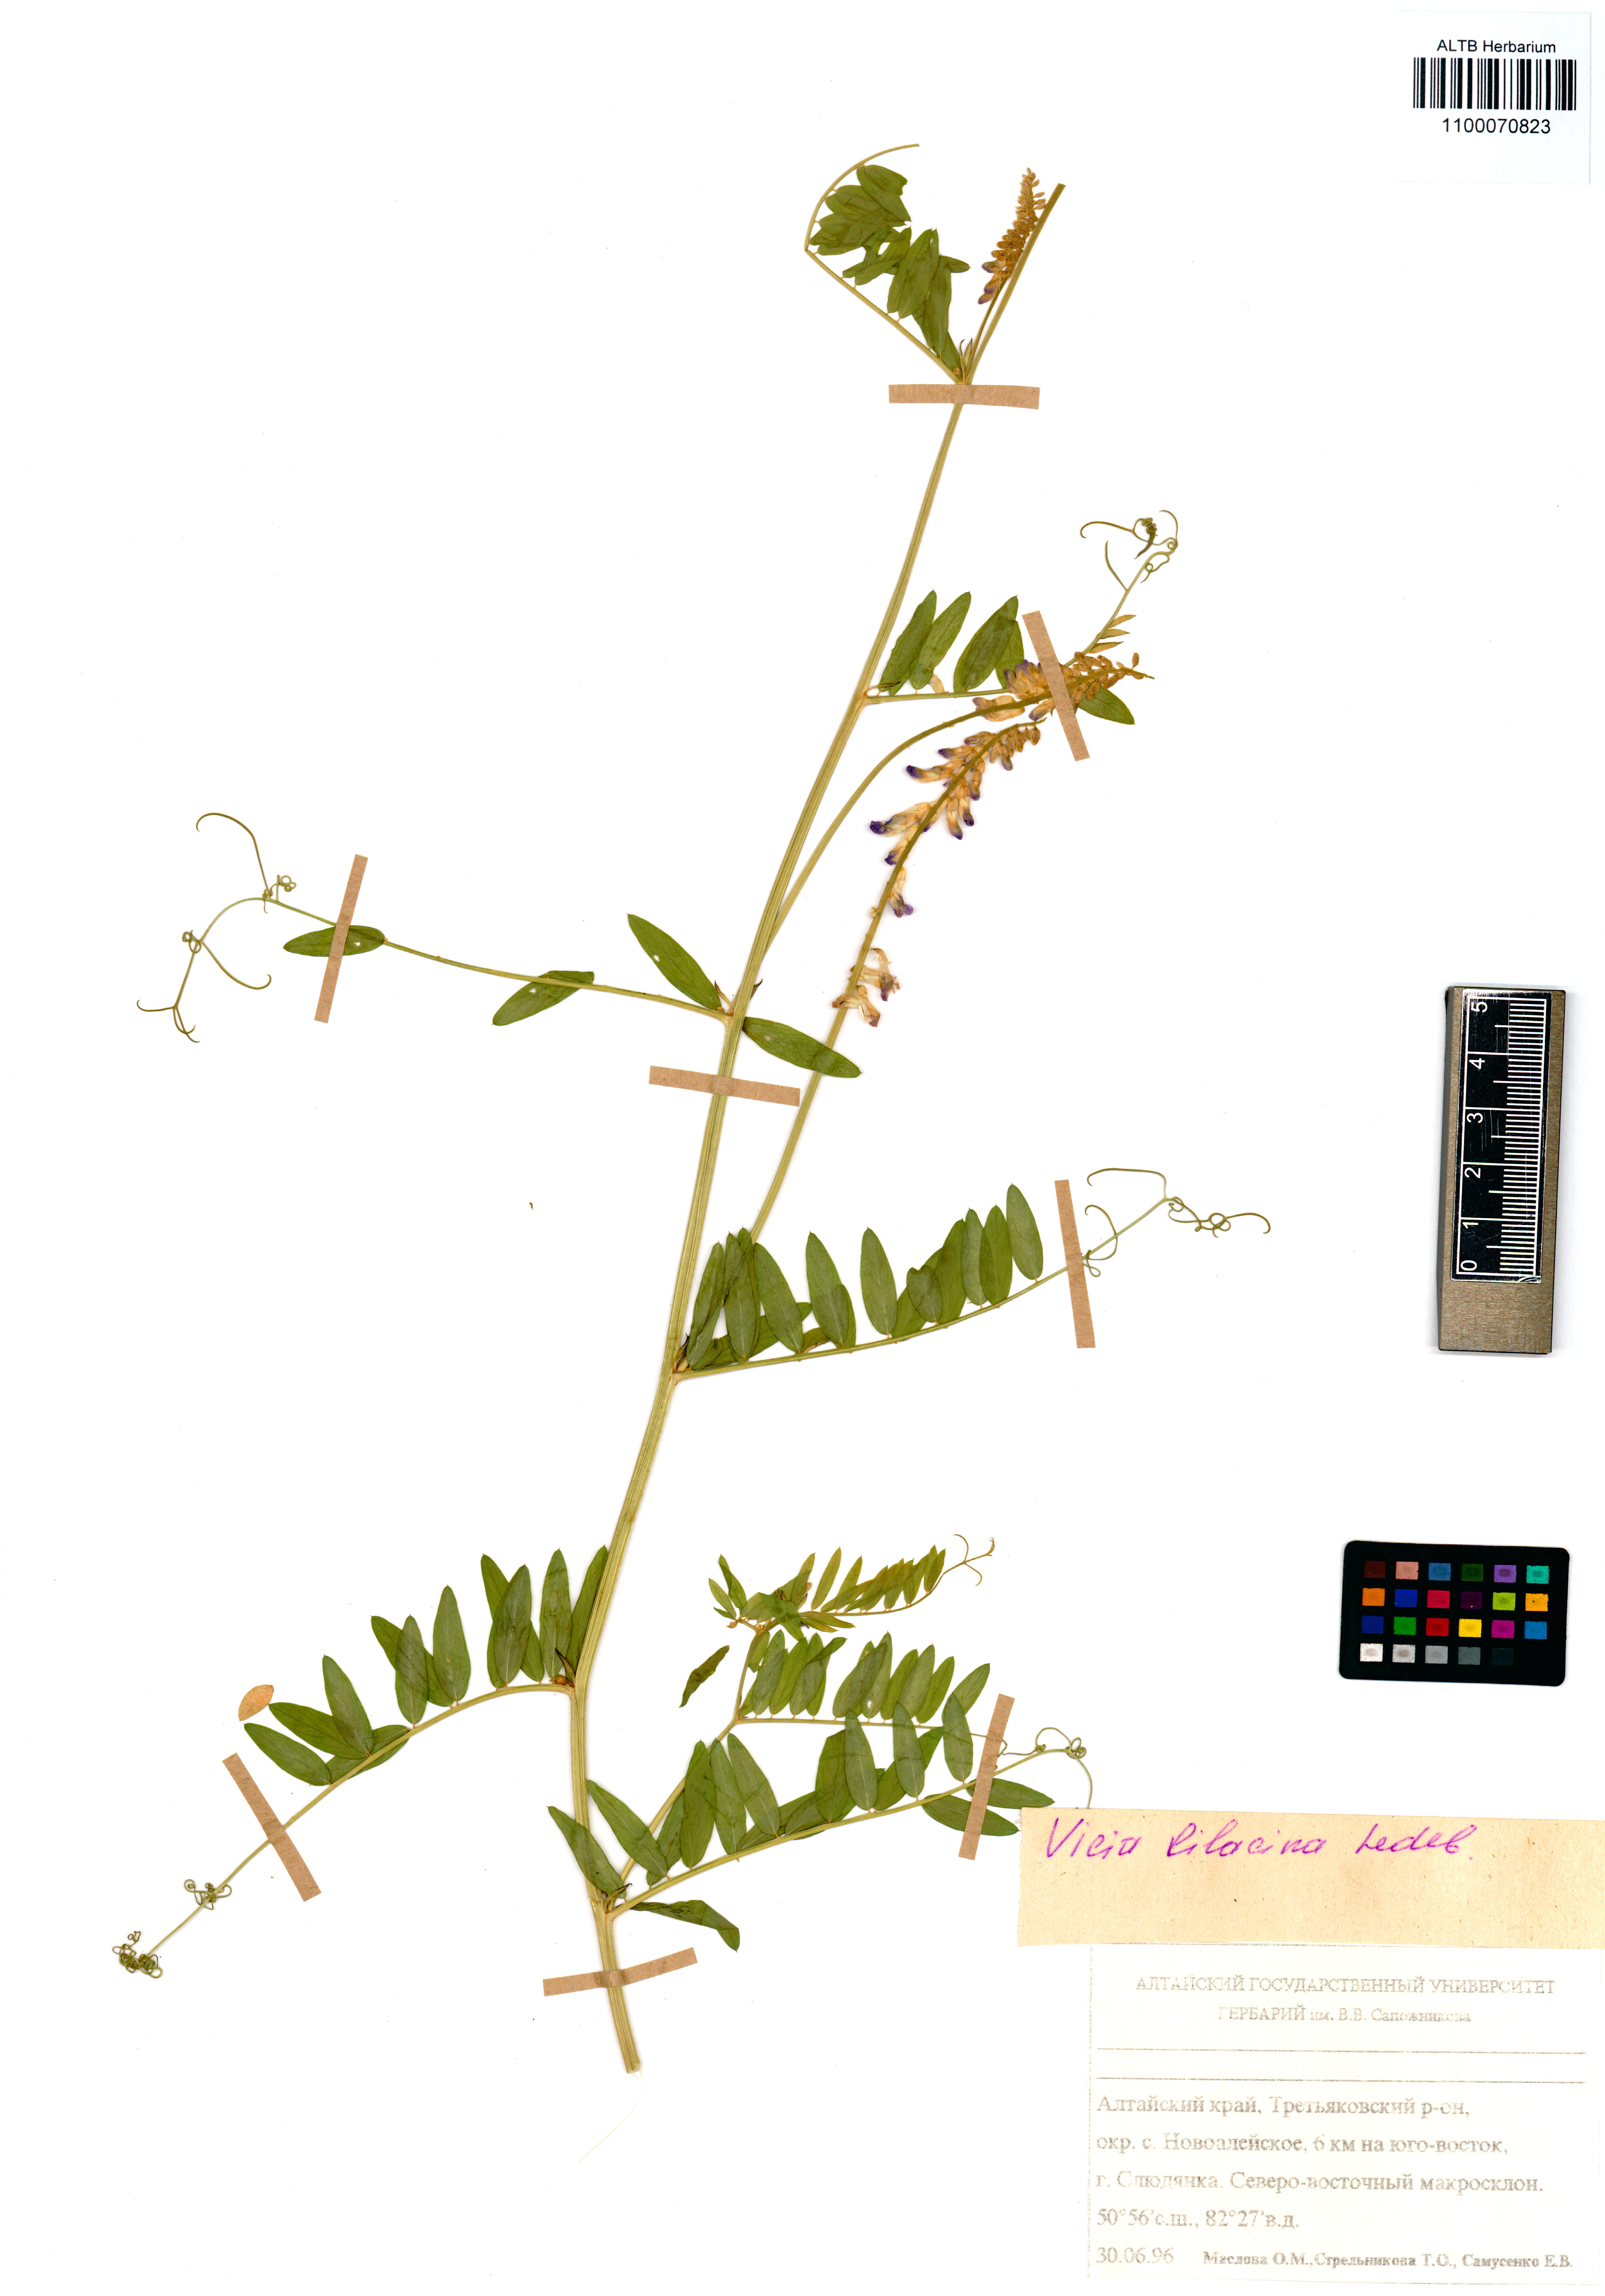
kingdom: Plantae
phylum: Tracheophyta
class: Magnoliopsida
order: Fabales
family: Fabaceae
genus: Vicia
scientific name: Vicia lilacina
